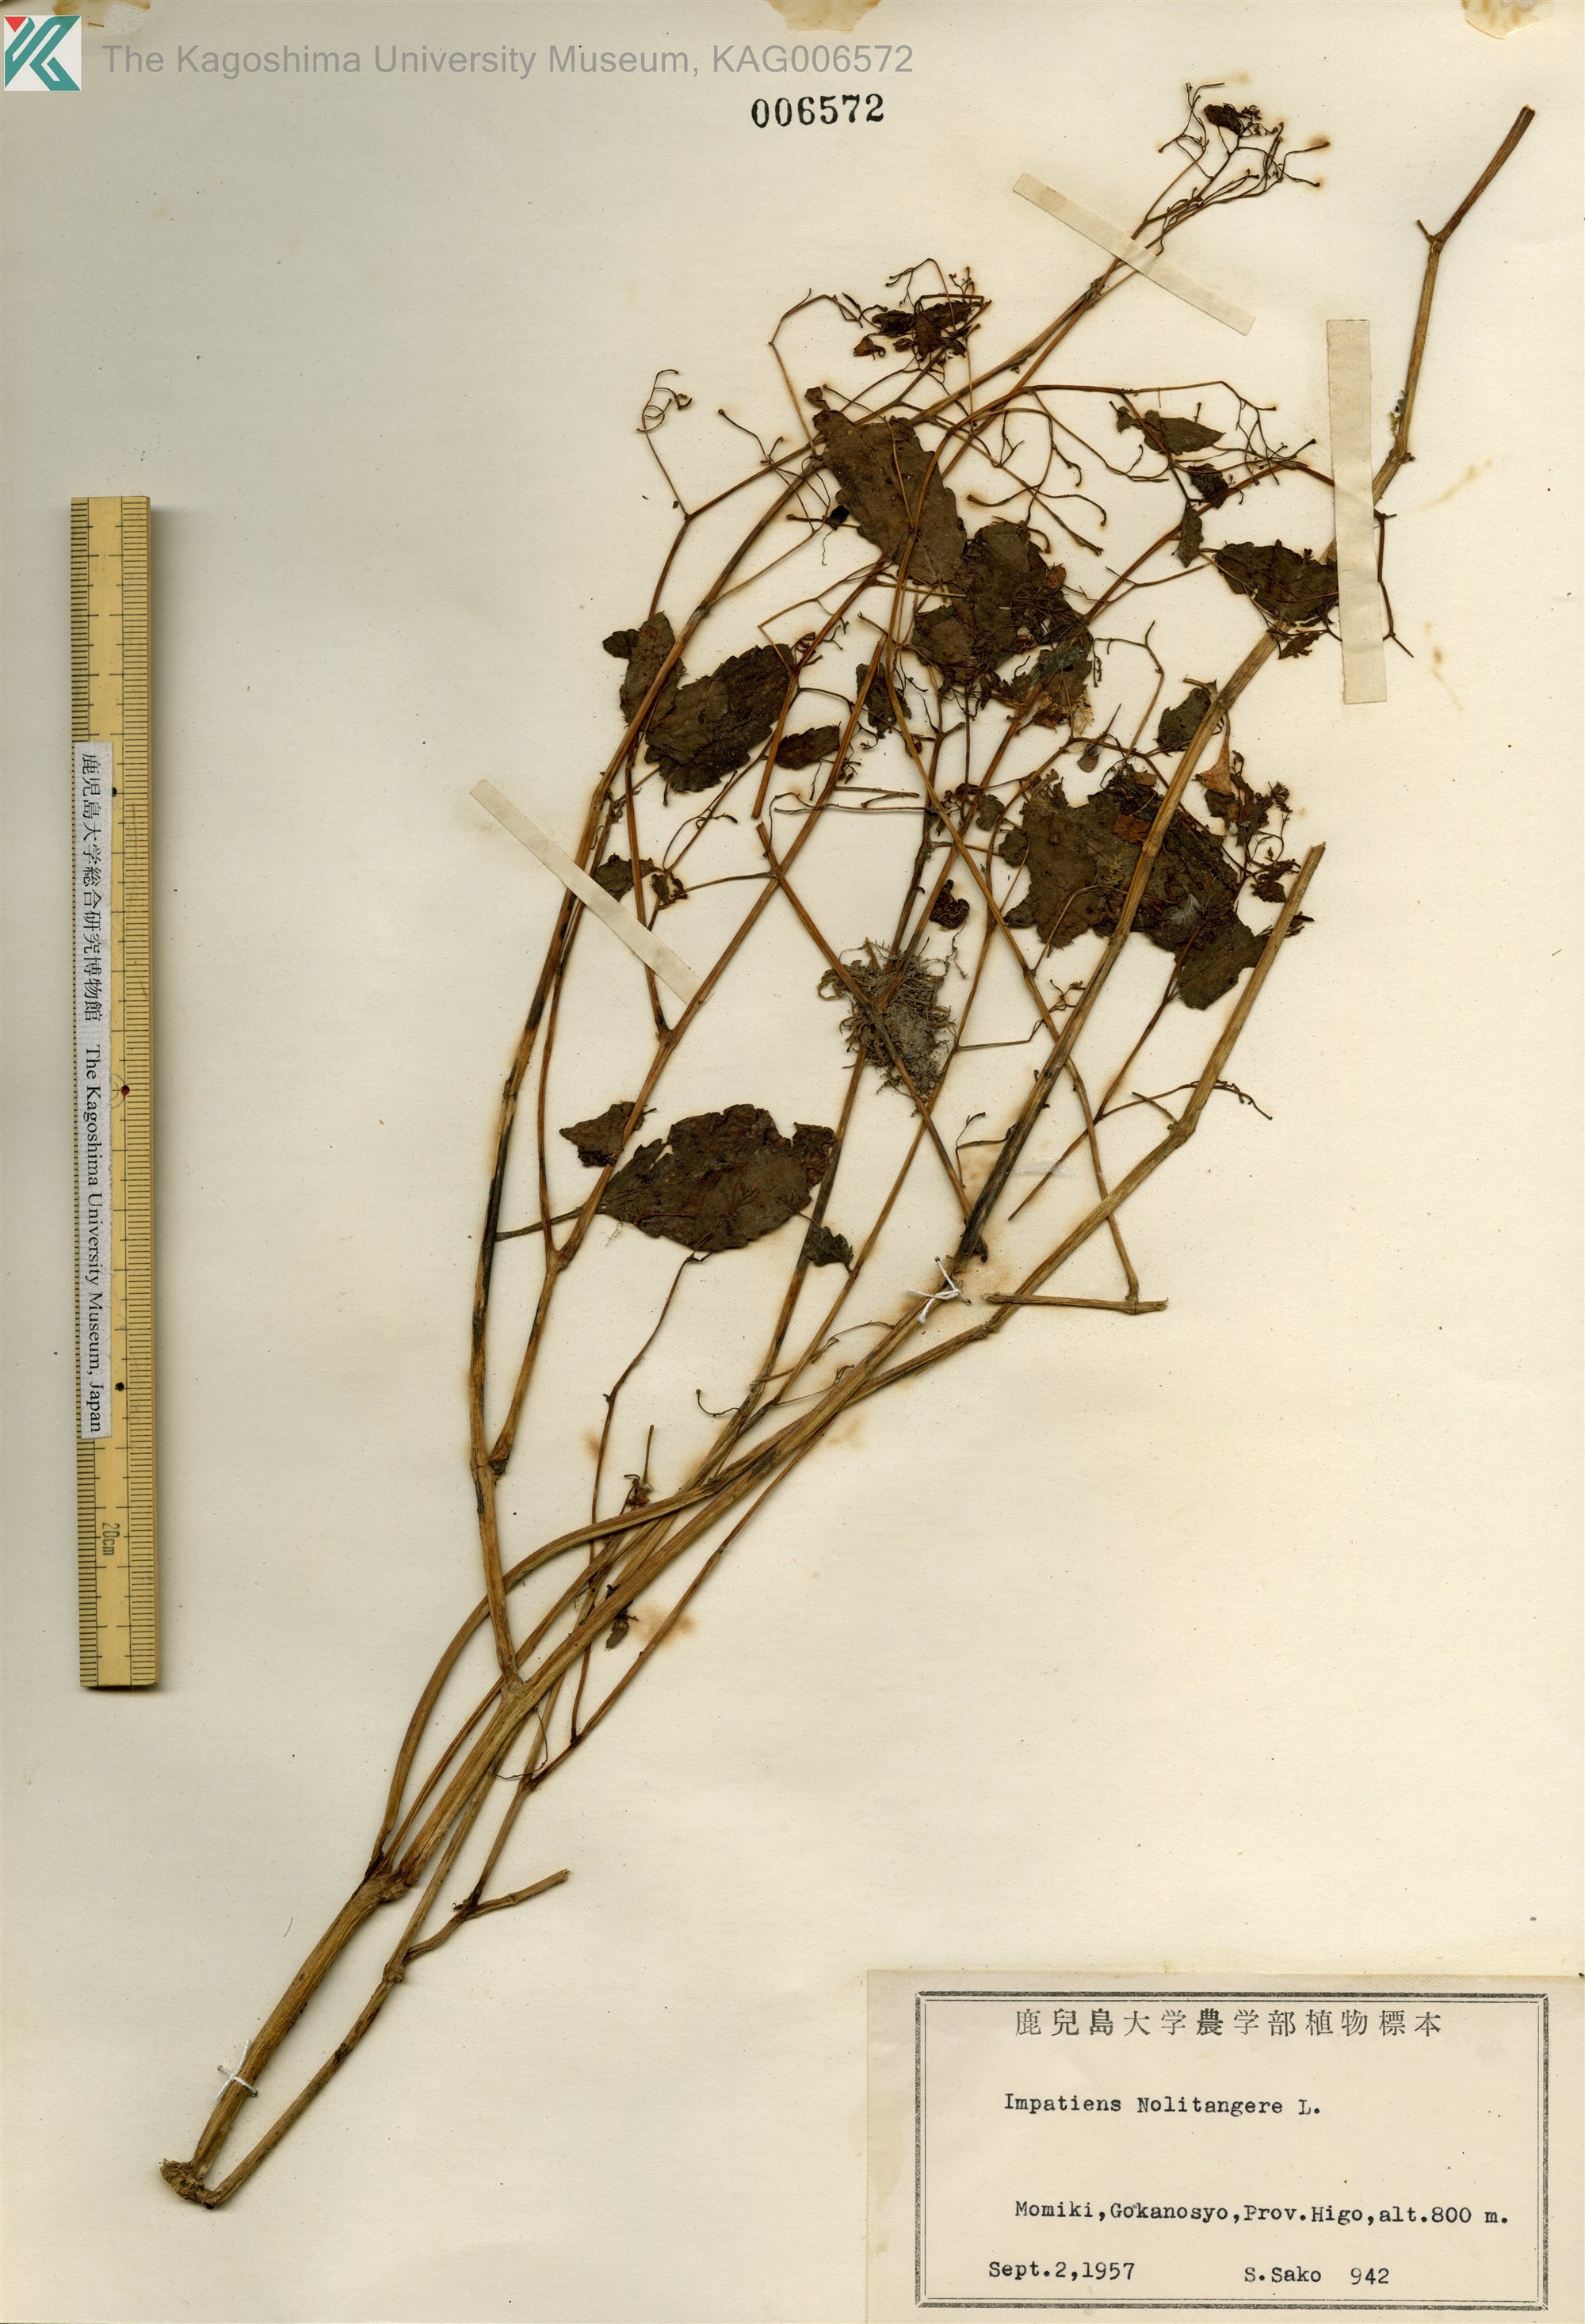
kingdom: Plantae
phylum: Tracheophyta
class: Magnoliopsida
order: Ericales
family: Balsaminaceae
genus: Impatiens
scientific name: Impatiens noli-tangere
